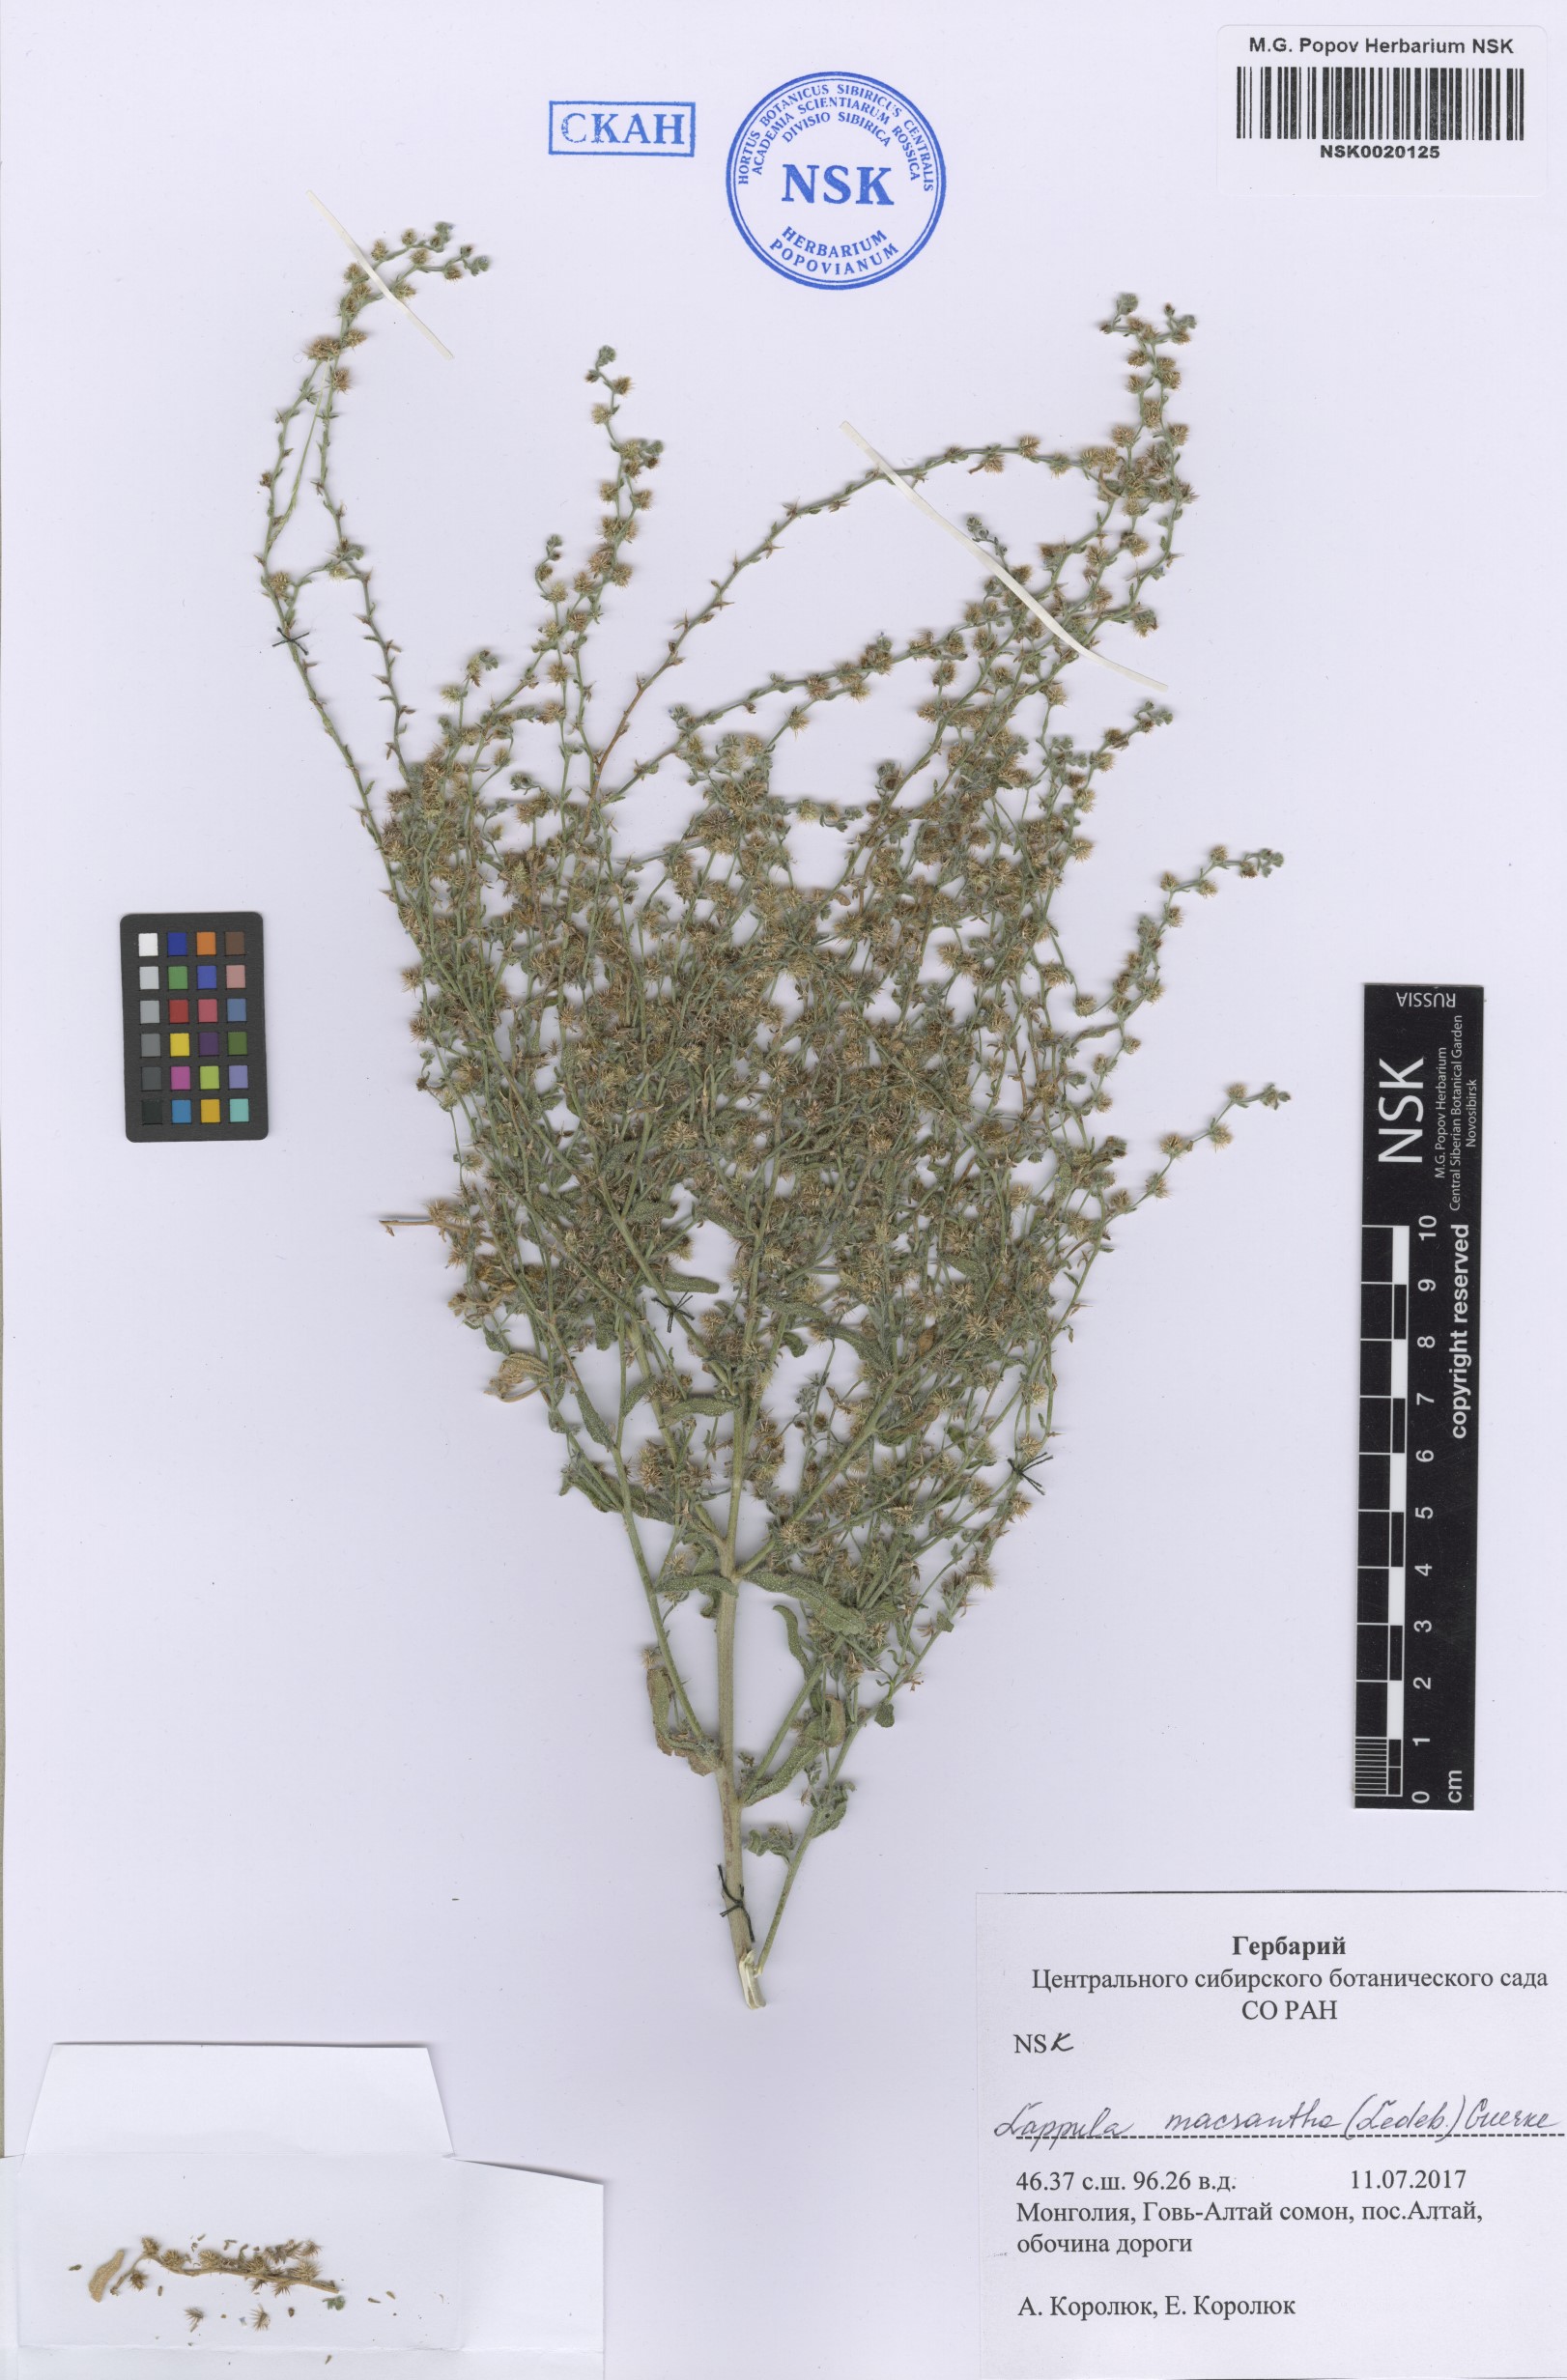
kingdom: Plantae
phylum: Tracheophyta
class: Magnoliopsida
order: Boraginales
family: Boraginaceae
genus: Lappula
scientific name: Lappula macrantha
